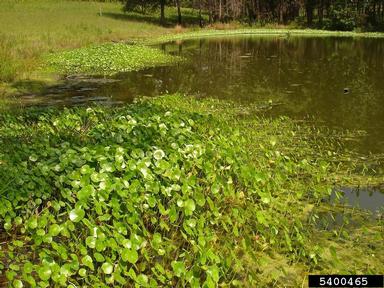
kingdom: Plantae
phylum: Tracheophyta
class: Magnoliopsida
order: Apiales
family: Araliaceae
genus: Hydrocotyle
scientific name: Hydrocotyle bonariensis
